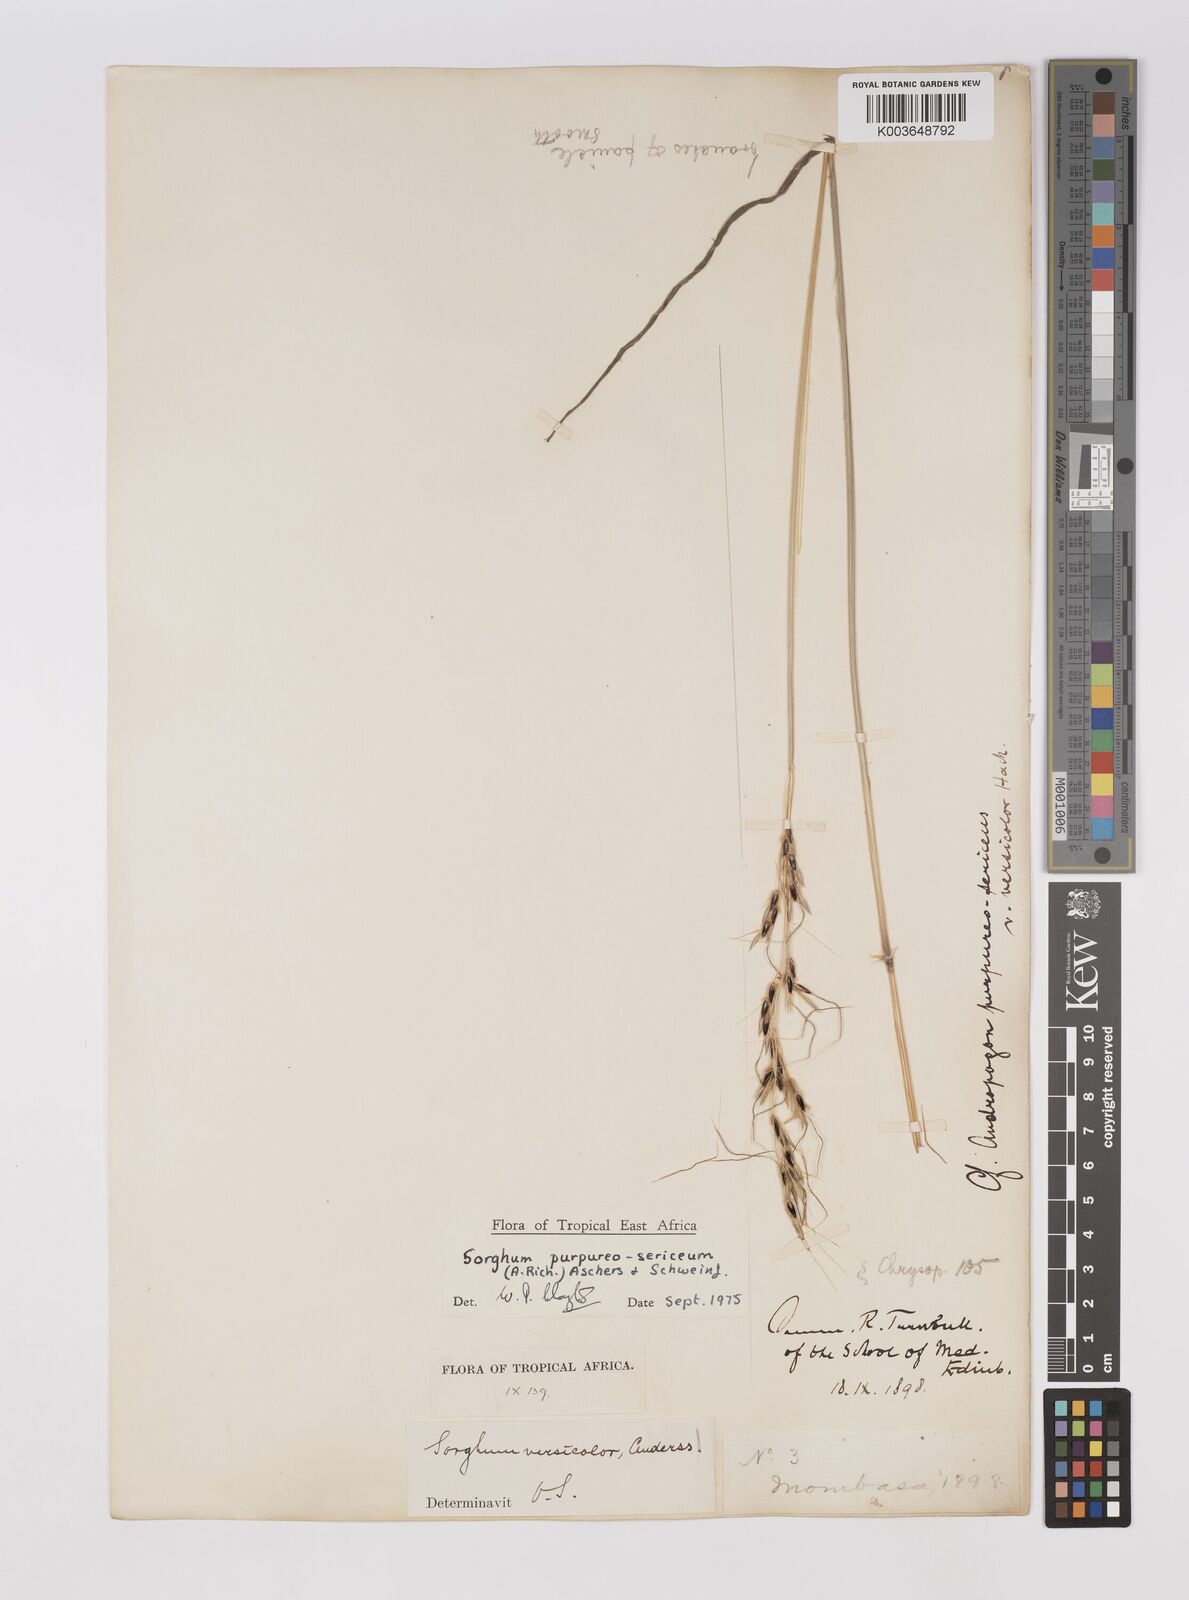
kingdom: Plantae
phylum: Tracheophyta
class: Liliopsida
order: Poales
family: Poaceae
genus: Sarga
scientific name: Sarga purpureosericea
